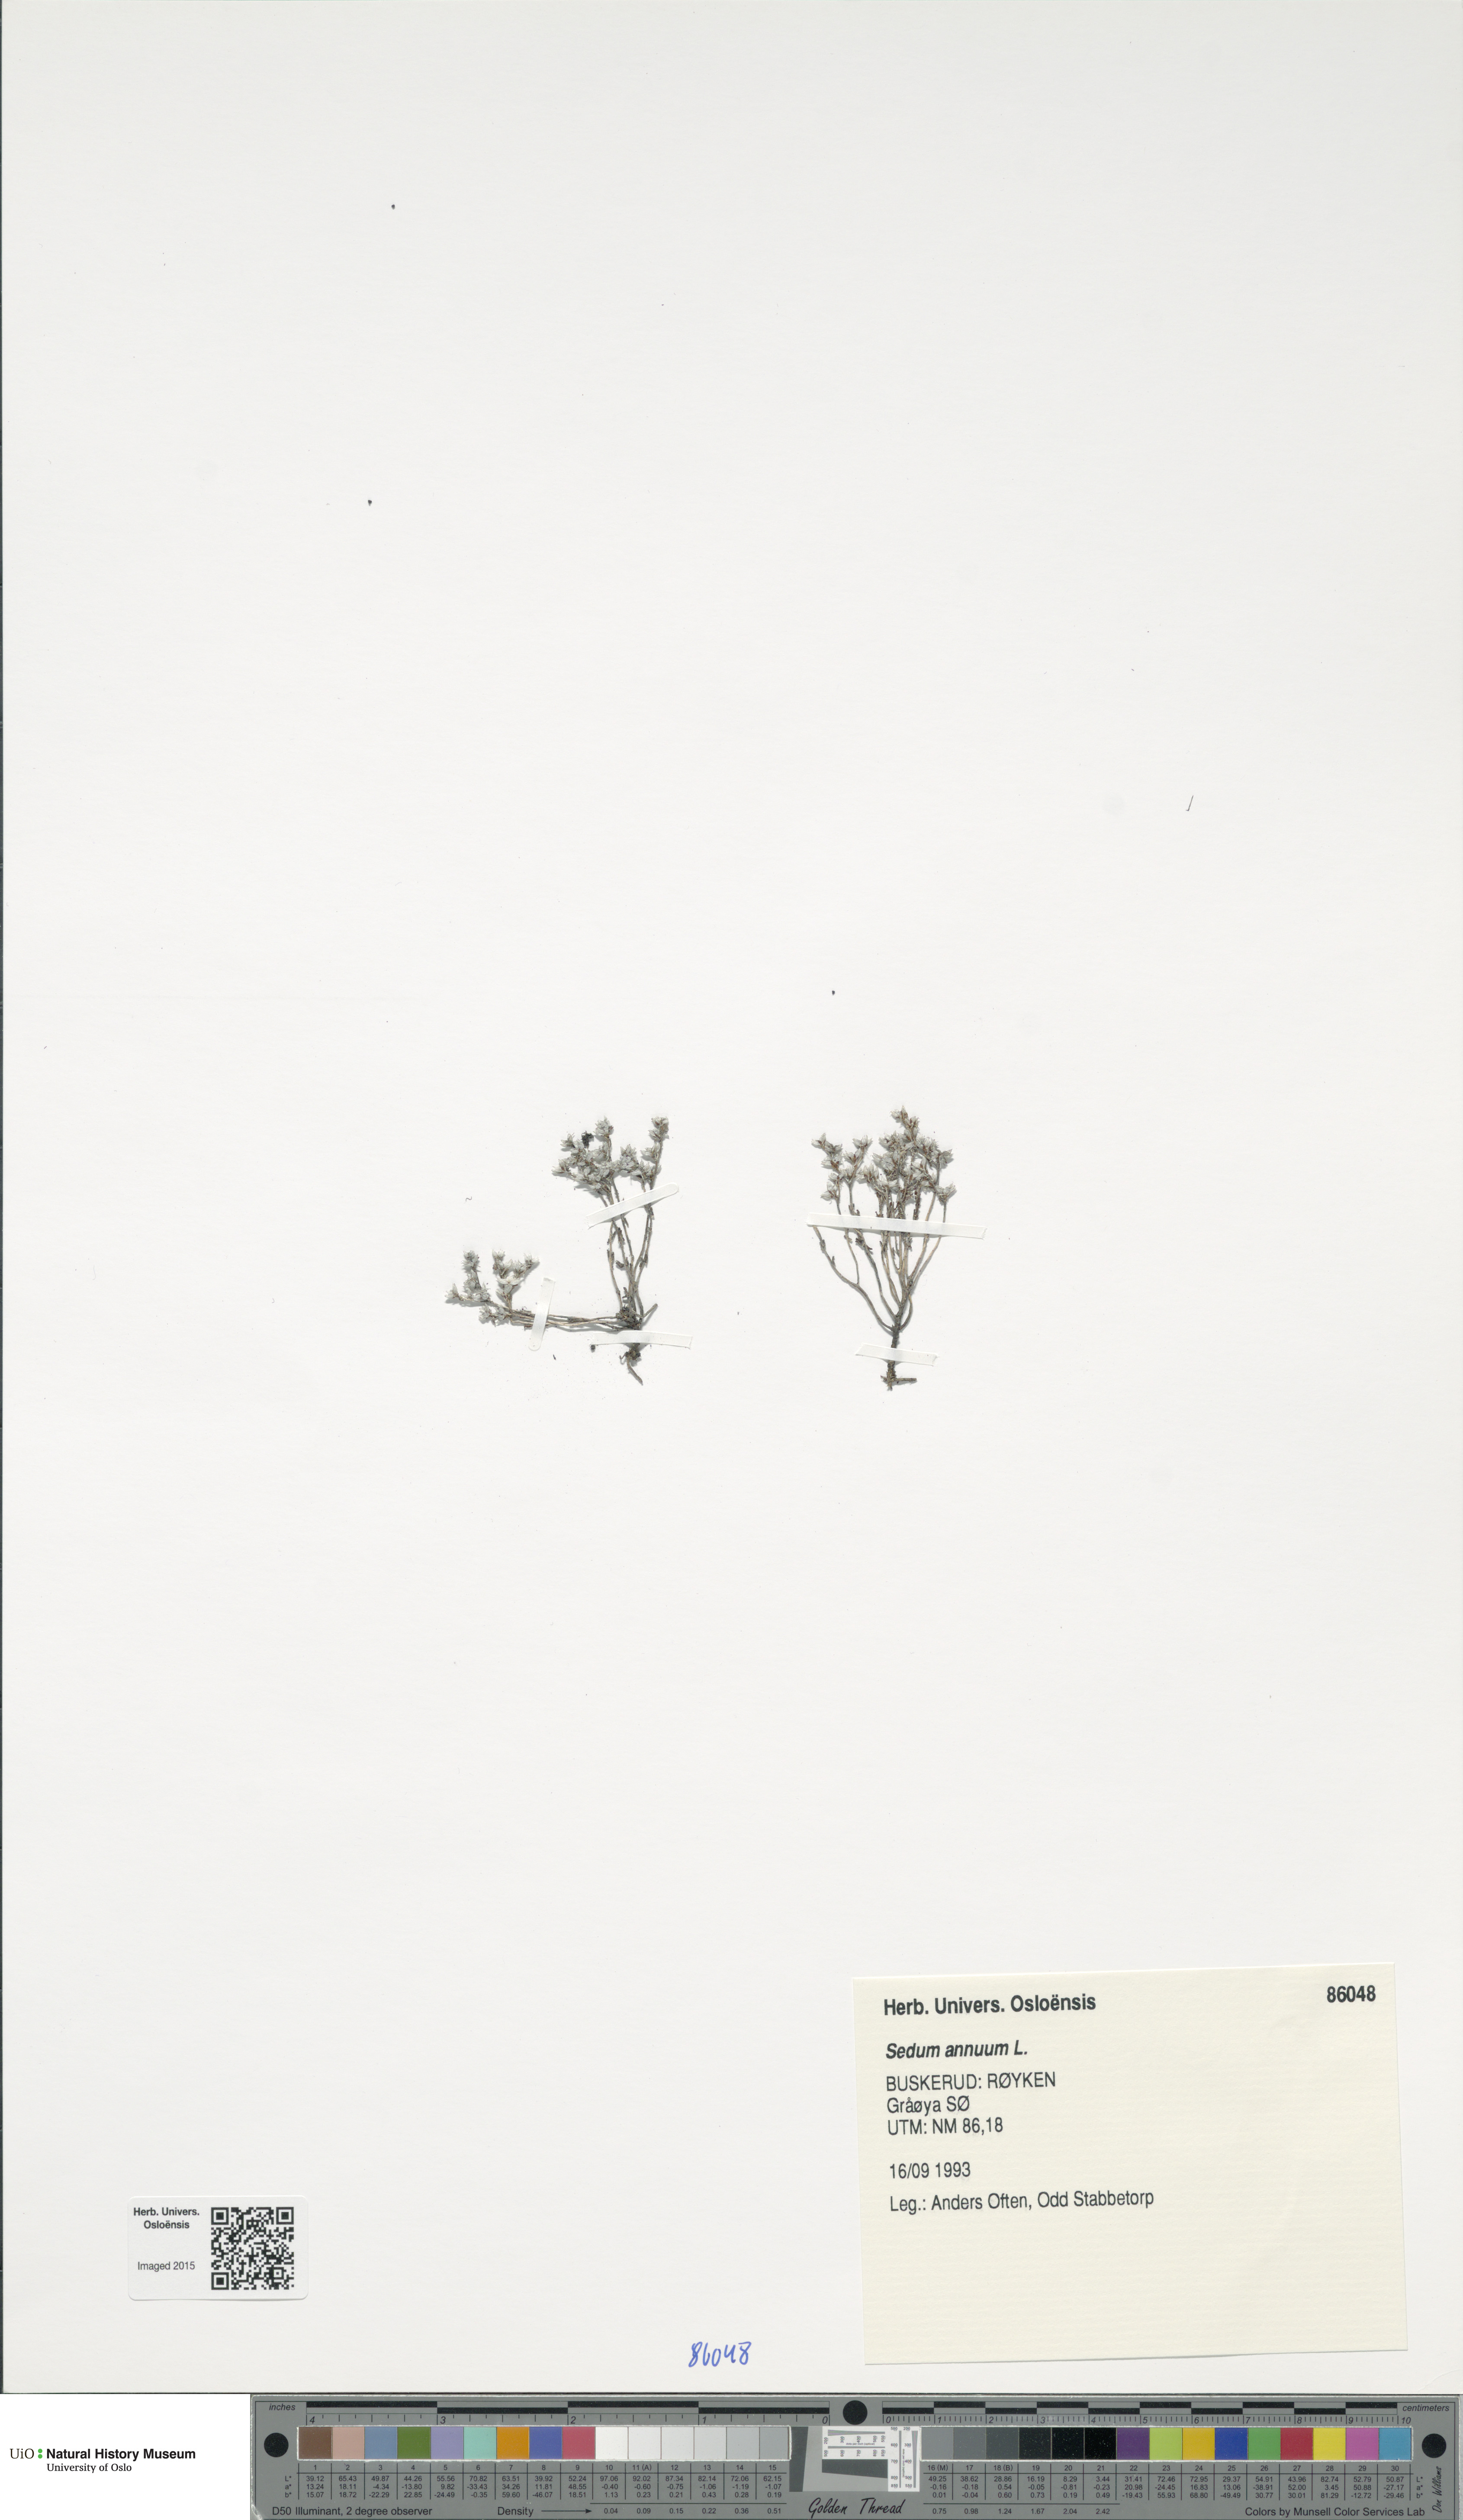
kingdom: Plantae
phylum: Tracheophyta
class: Magnoliopsida
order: Saxifragales
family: Crassulaceae
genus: Sedum
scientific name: Sedum annuum
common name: Annual stonecrop
